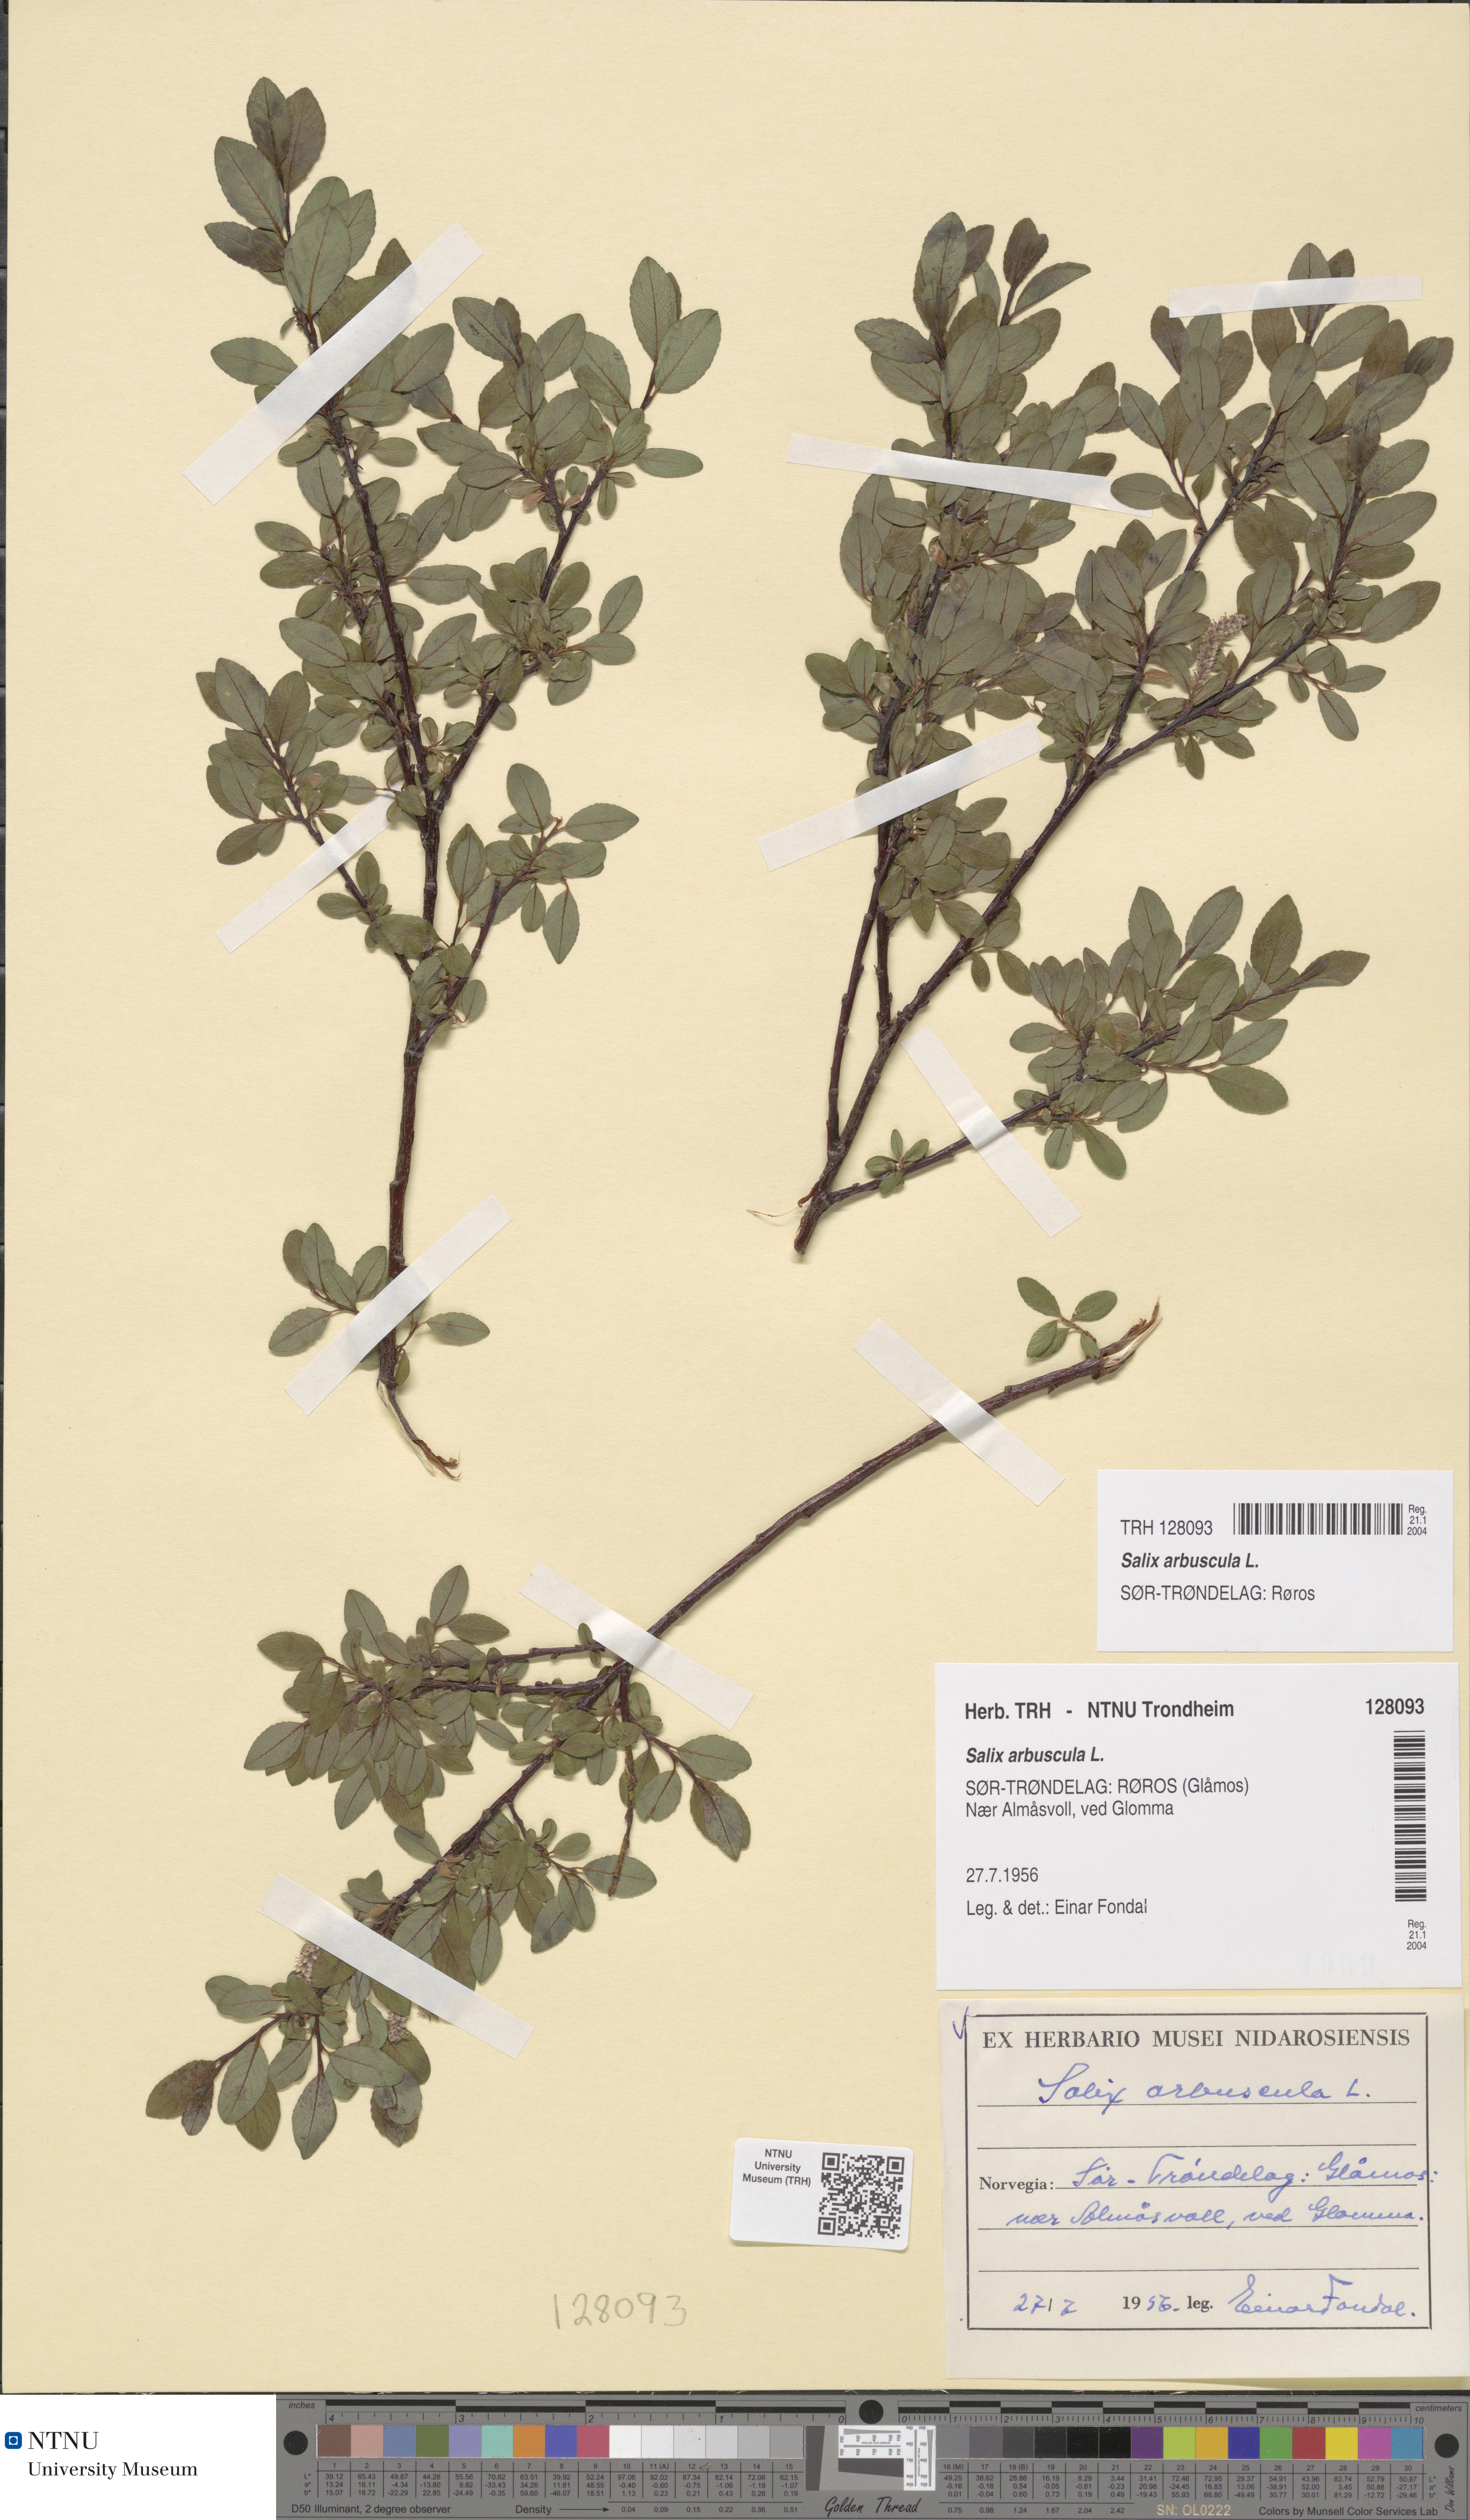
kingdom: Plantae
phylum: Tracheophyta
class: Magnoliopsida
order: Malpighiales
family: Salicaceae
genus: Salix
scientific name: Salix arbuscula
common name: Mountain willow
